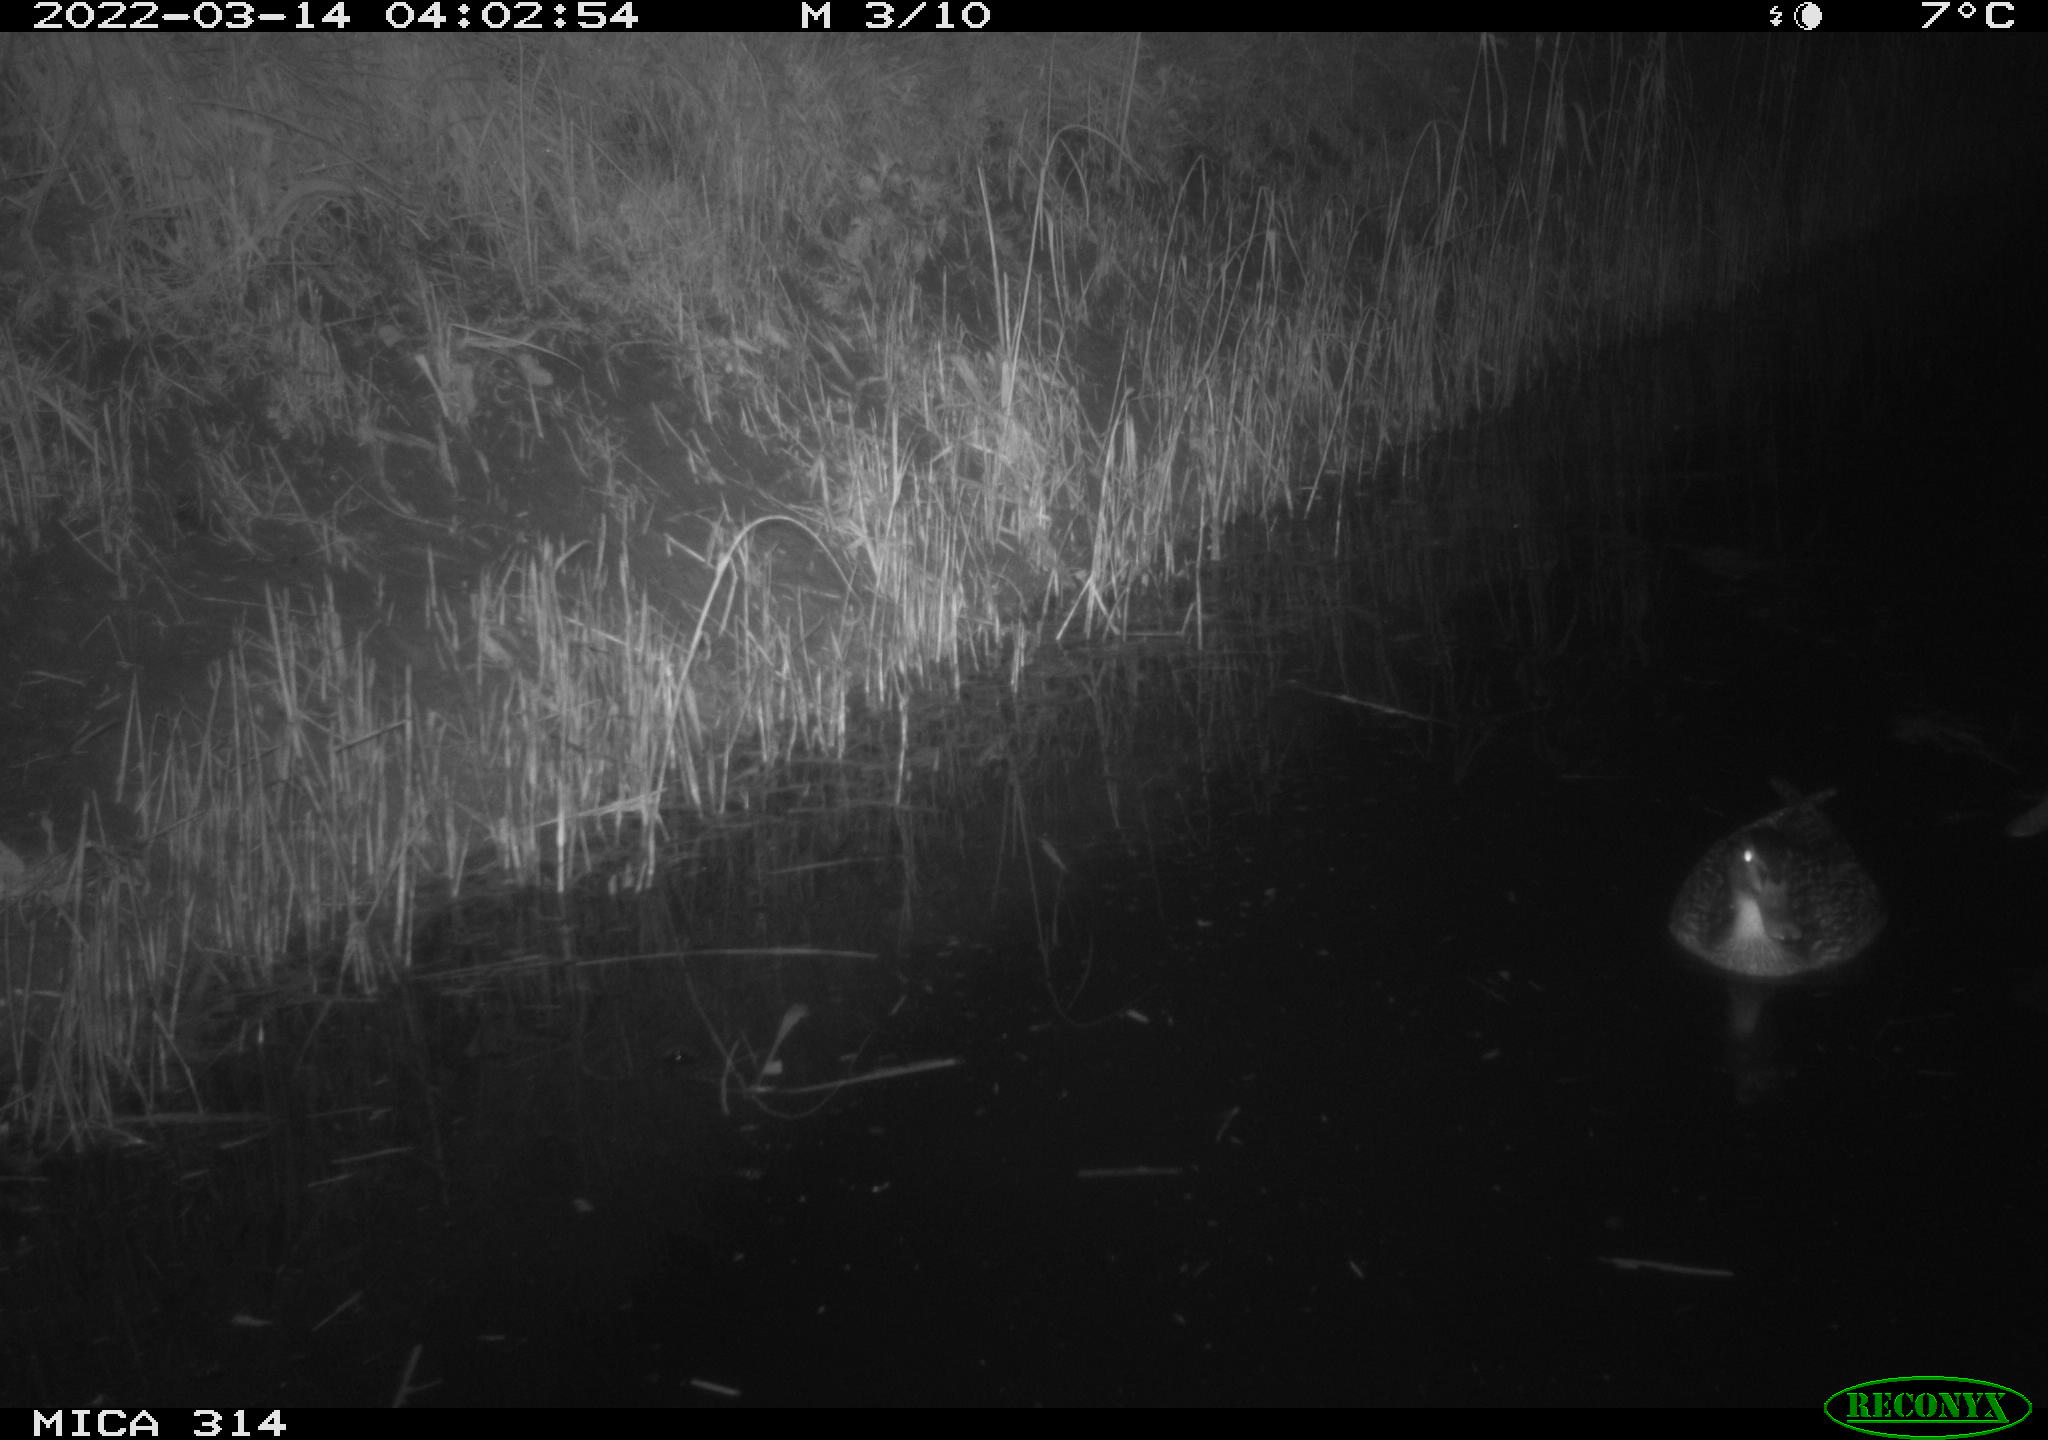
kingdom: Animalia
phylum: Chordata
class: Aves
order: Anseriformes
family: Anatidae
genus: Anas
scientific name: Anas platyrhynchos
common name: Mallard
